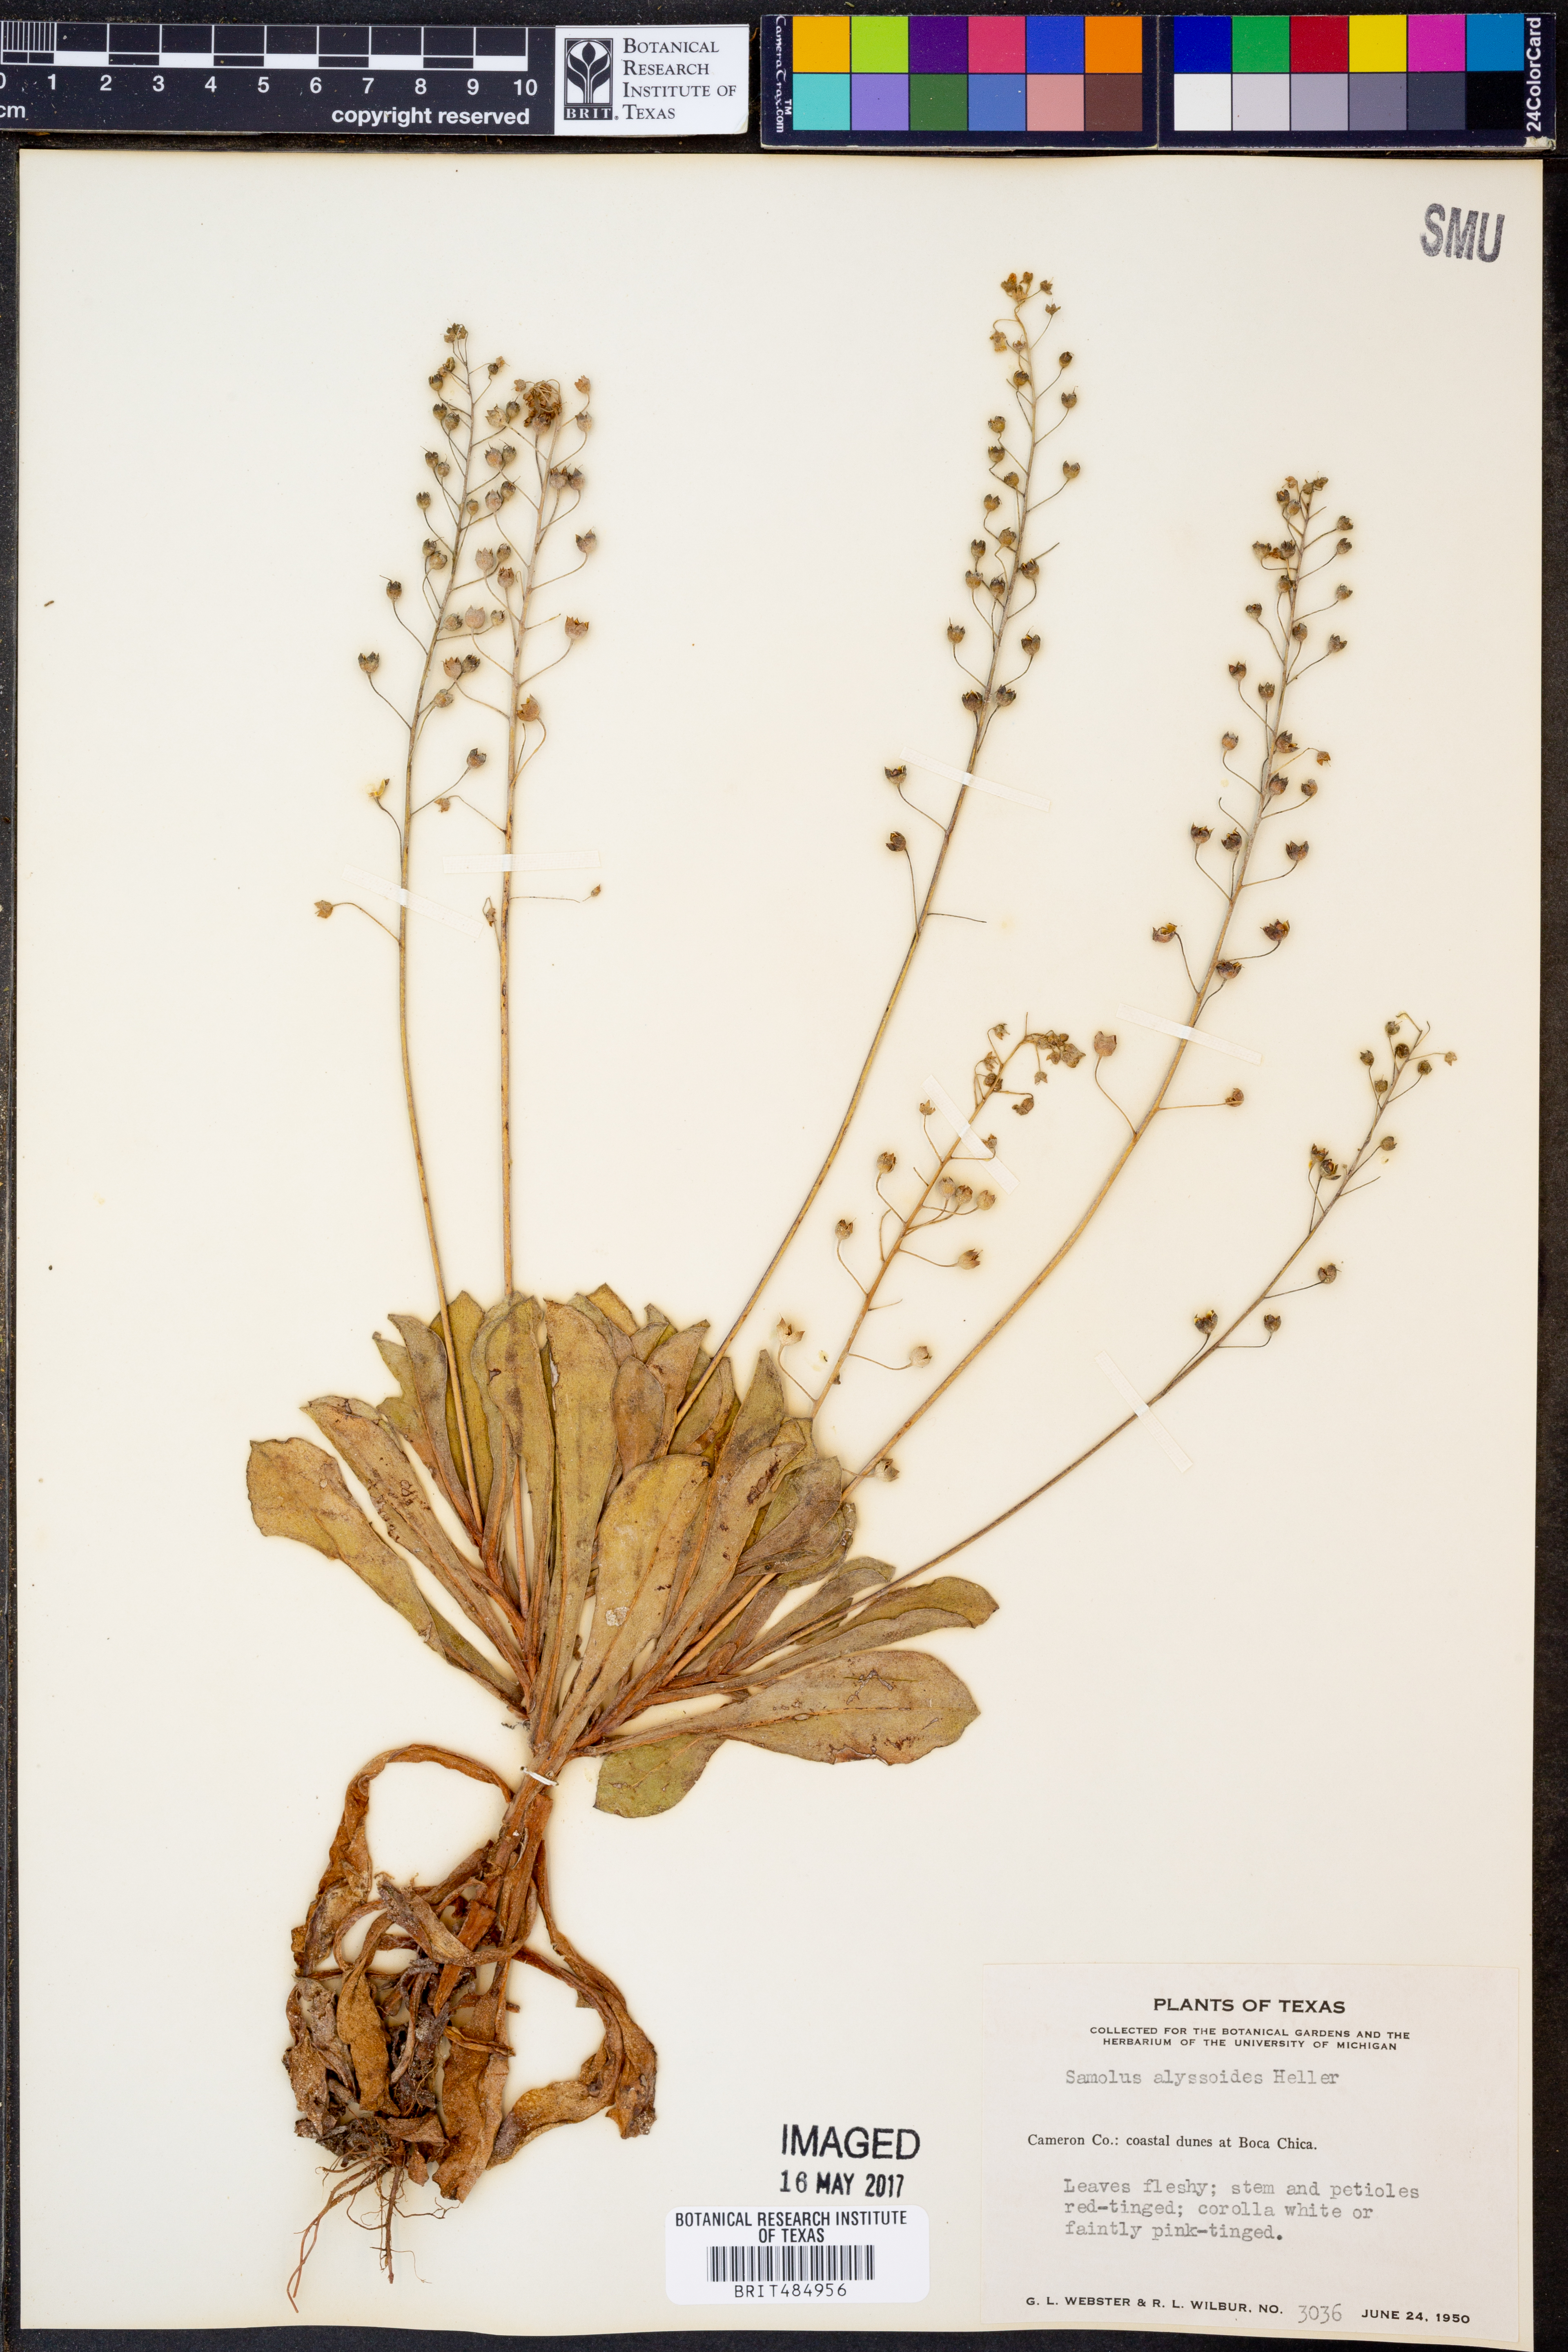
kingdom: Plantae
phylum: Tracheophyta
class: Magnoliopsida
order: Ericales
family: Primulaceae
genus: Samolus
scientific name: Samolus ebracteatus
